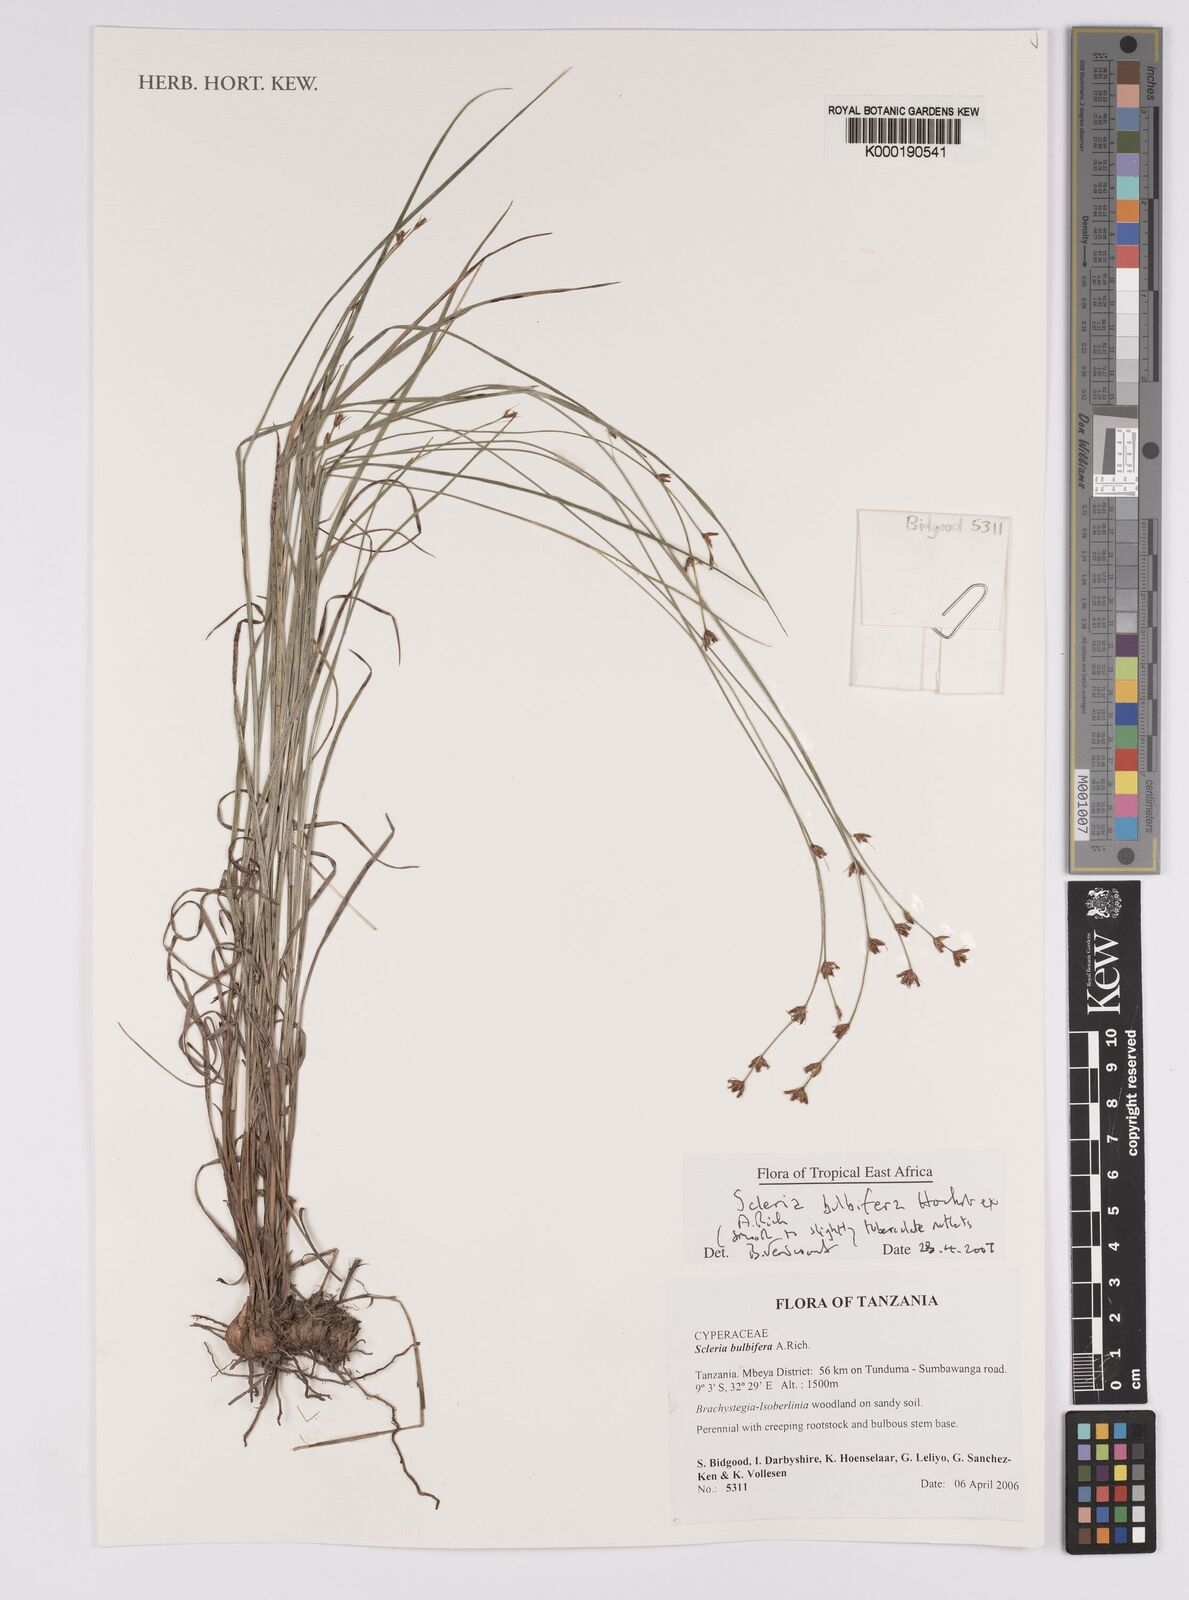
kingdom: Plantae
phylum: Tracheophyta
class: Liliopsida
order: Poales
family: Cyperaceae
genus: Scleria
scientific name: Scleria bulbifera
